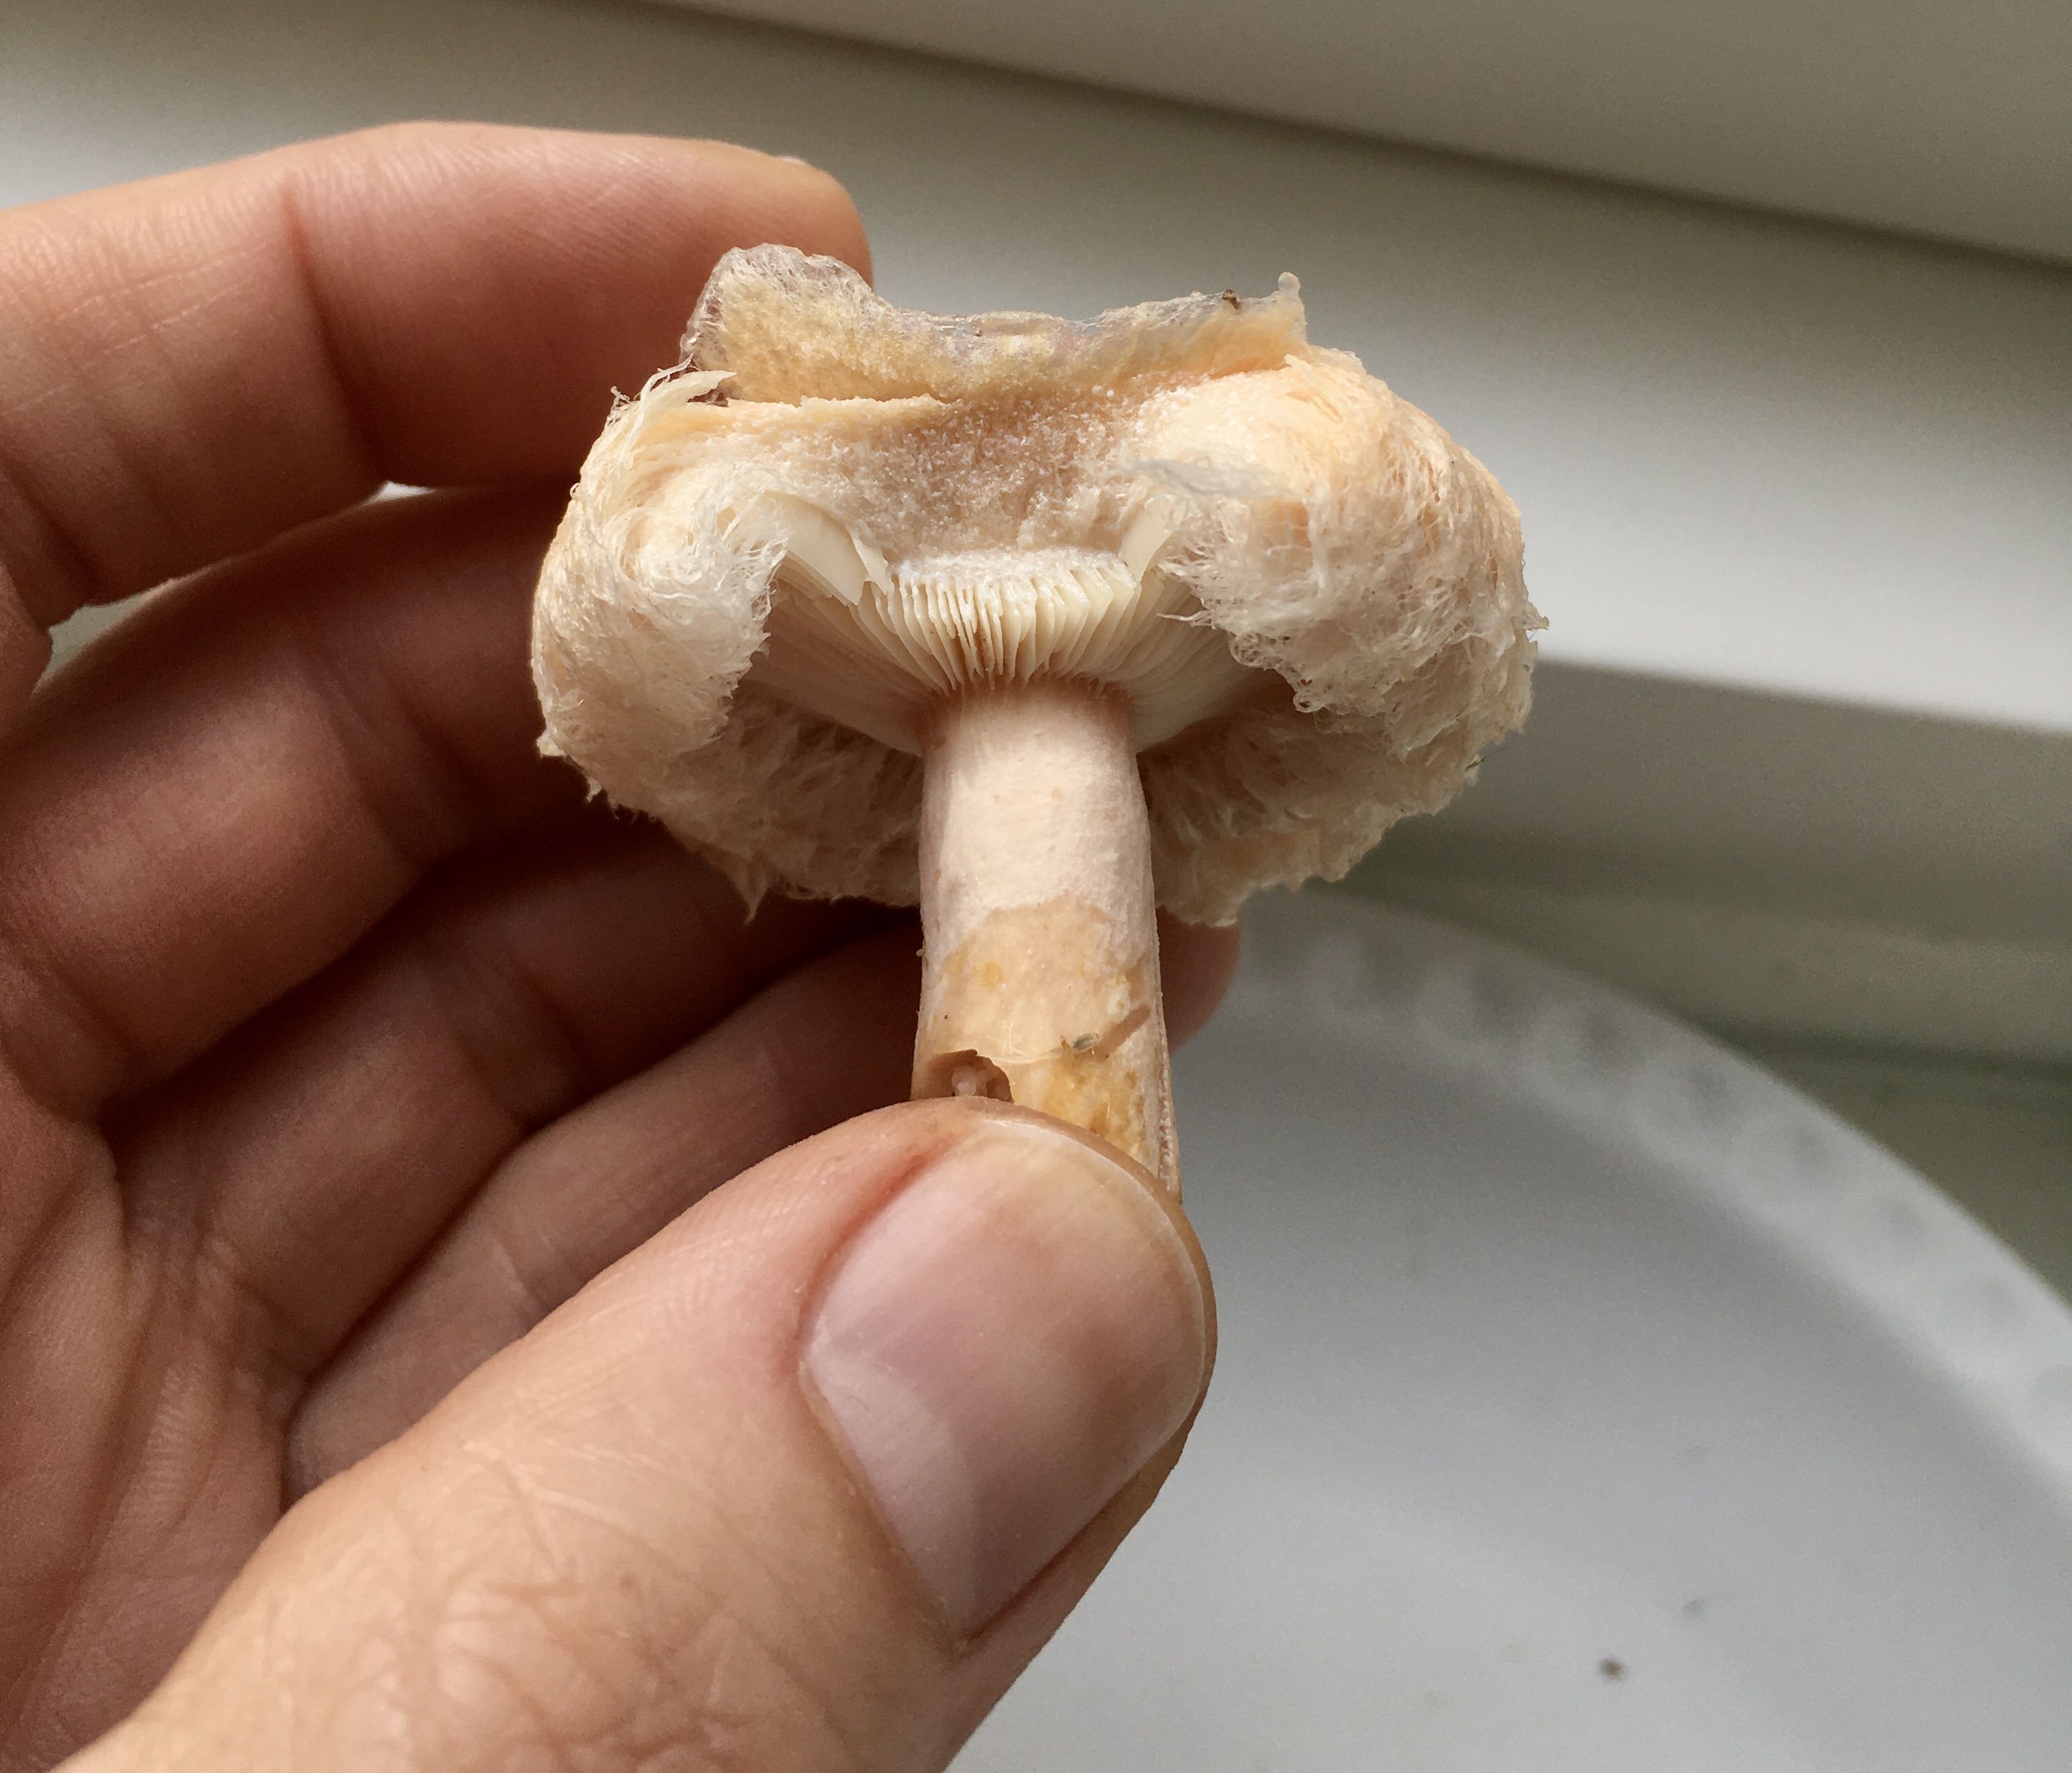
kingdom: Fungi
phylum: Basidiomycota
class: Agaricomycetes
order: Russulales
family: Russulaceae
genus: Lactarius
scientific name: Lactarius pubescens
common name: dunet mælkehat
